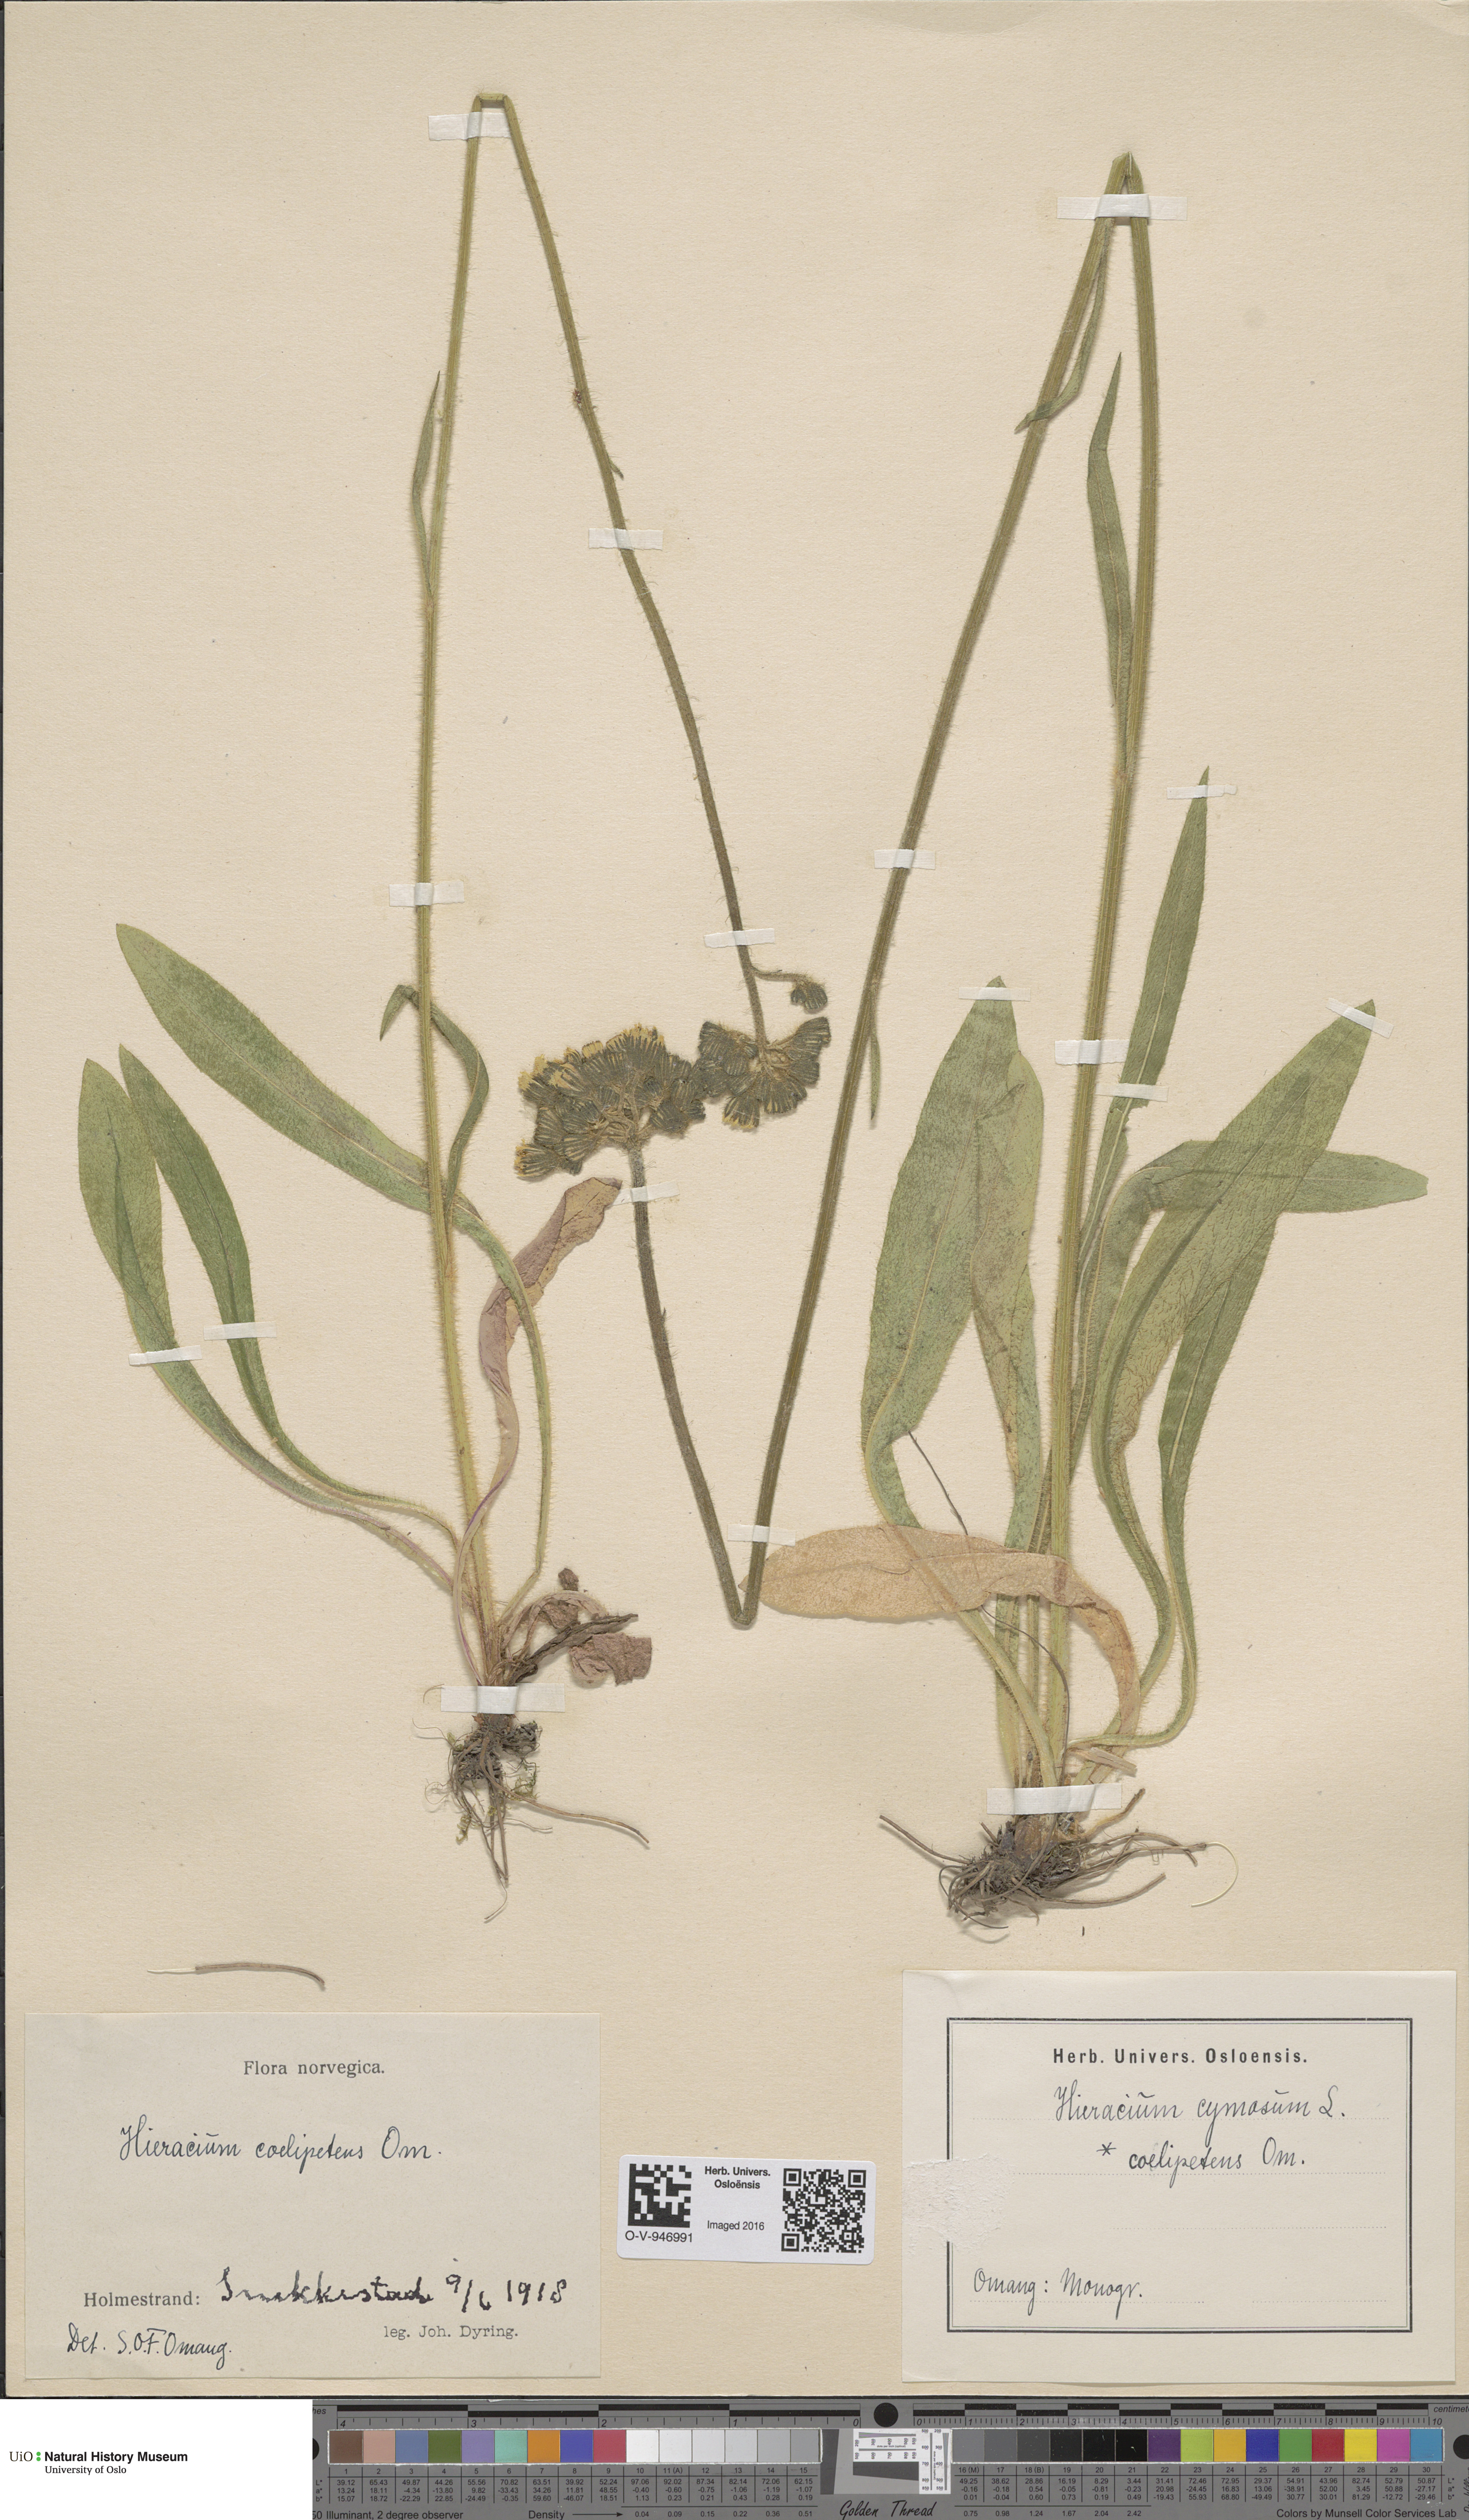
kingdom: Plantae
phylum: Tracheophyta
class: Magnoliopsida
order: Asterales
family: Asteraceae
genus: Pilosella
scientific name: Pilosella cymosa
